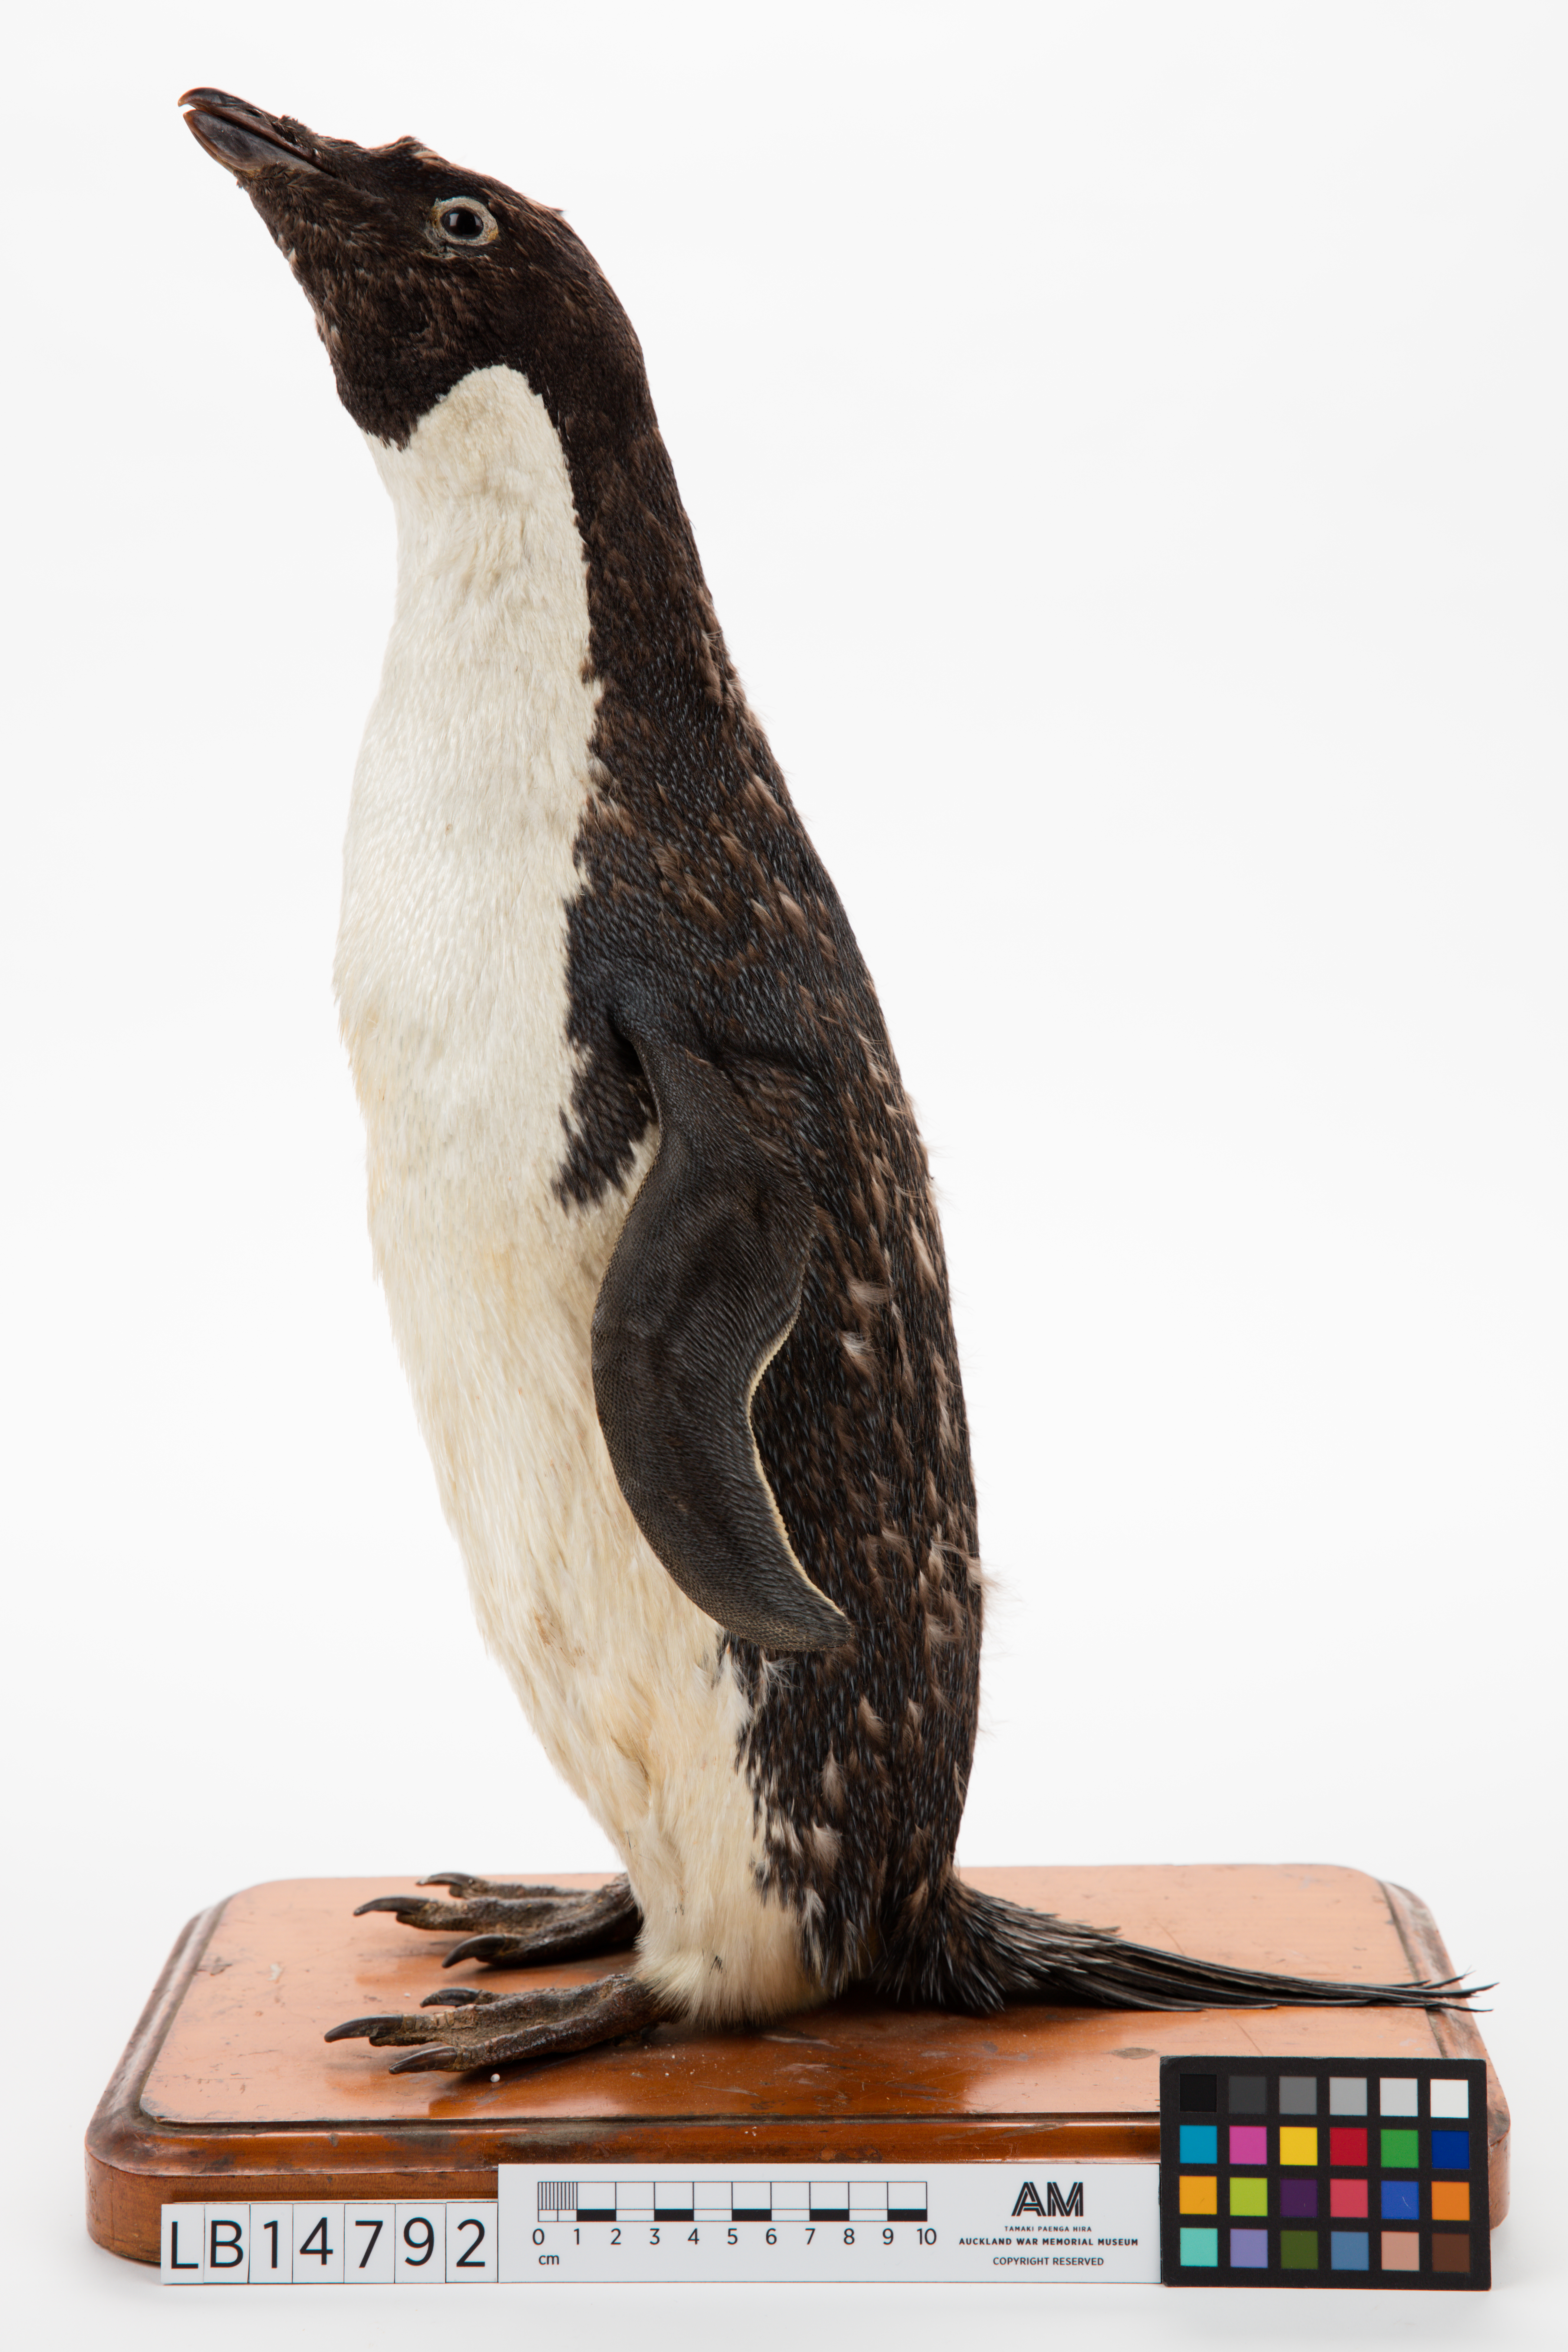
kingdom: Animalia
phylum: Chordata
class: Aves
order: Sphenisciformes
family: Spheniscidae
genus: Pygoscelis
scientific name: Pygoscelis adeliae
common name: Adelie penguin
